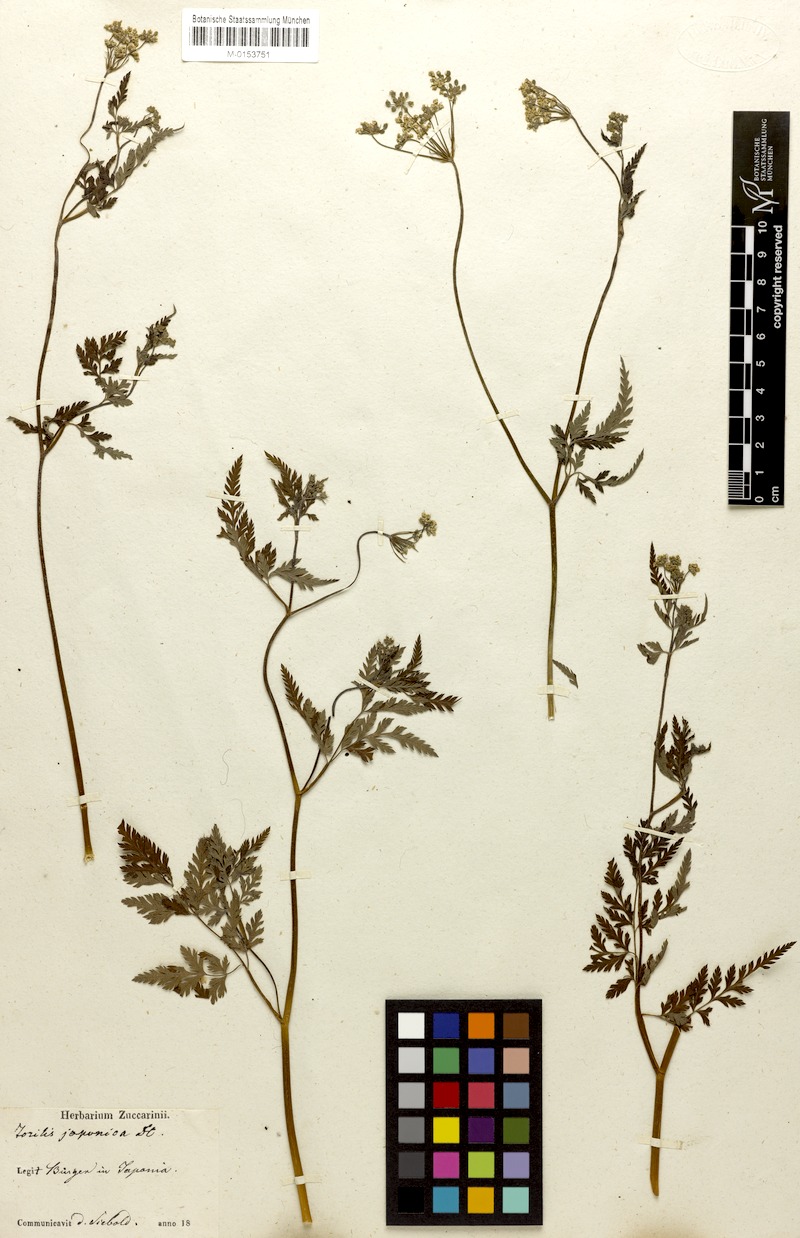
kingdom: Plantae
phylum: Tracheophyta
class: Magnoliopsida
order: Apiales
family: Apiaceae
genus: Torilis
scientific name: Torilis japonica
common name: Upright hedge-parsley
